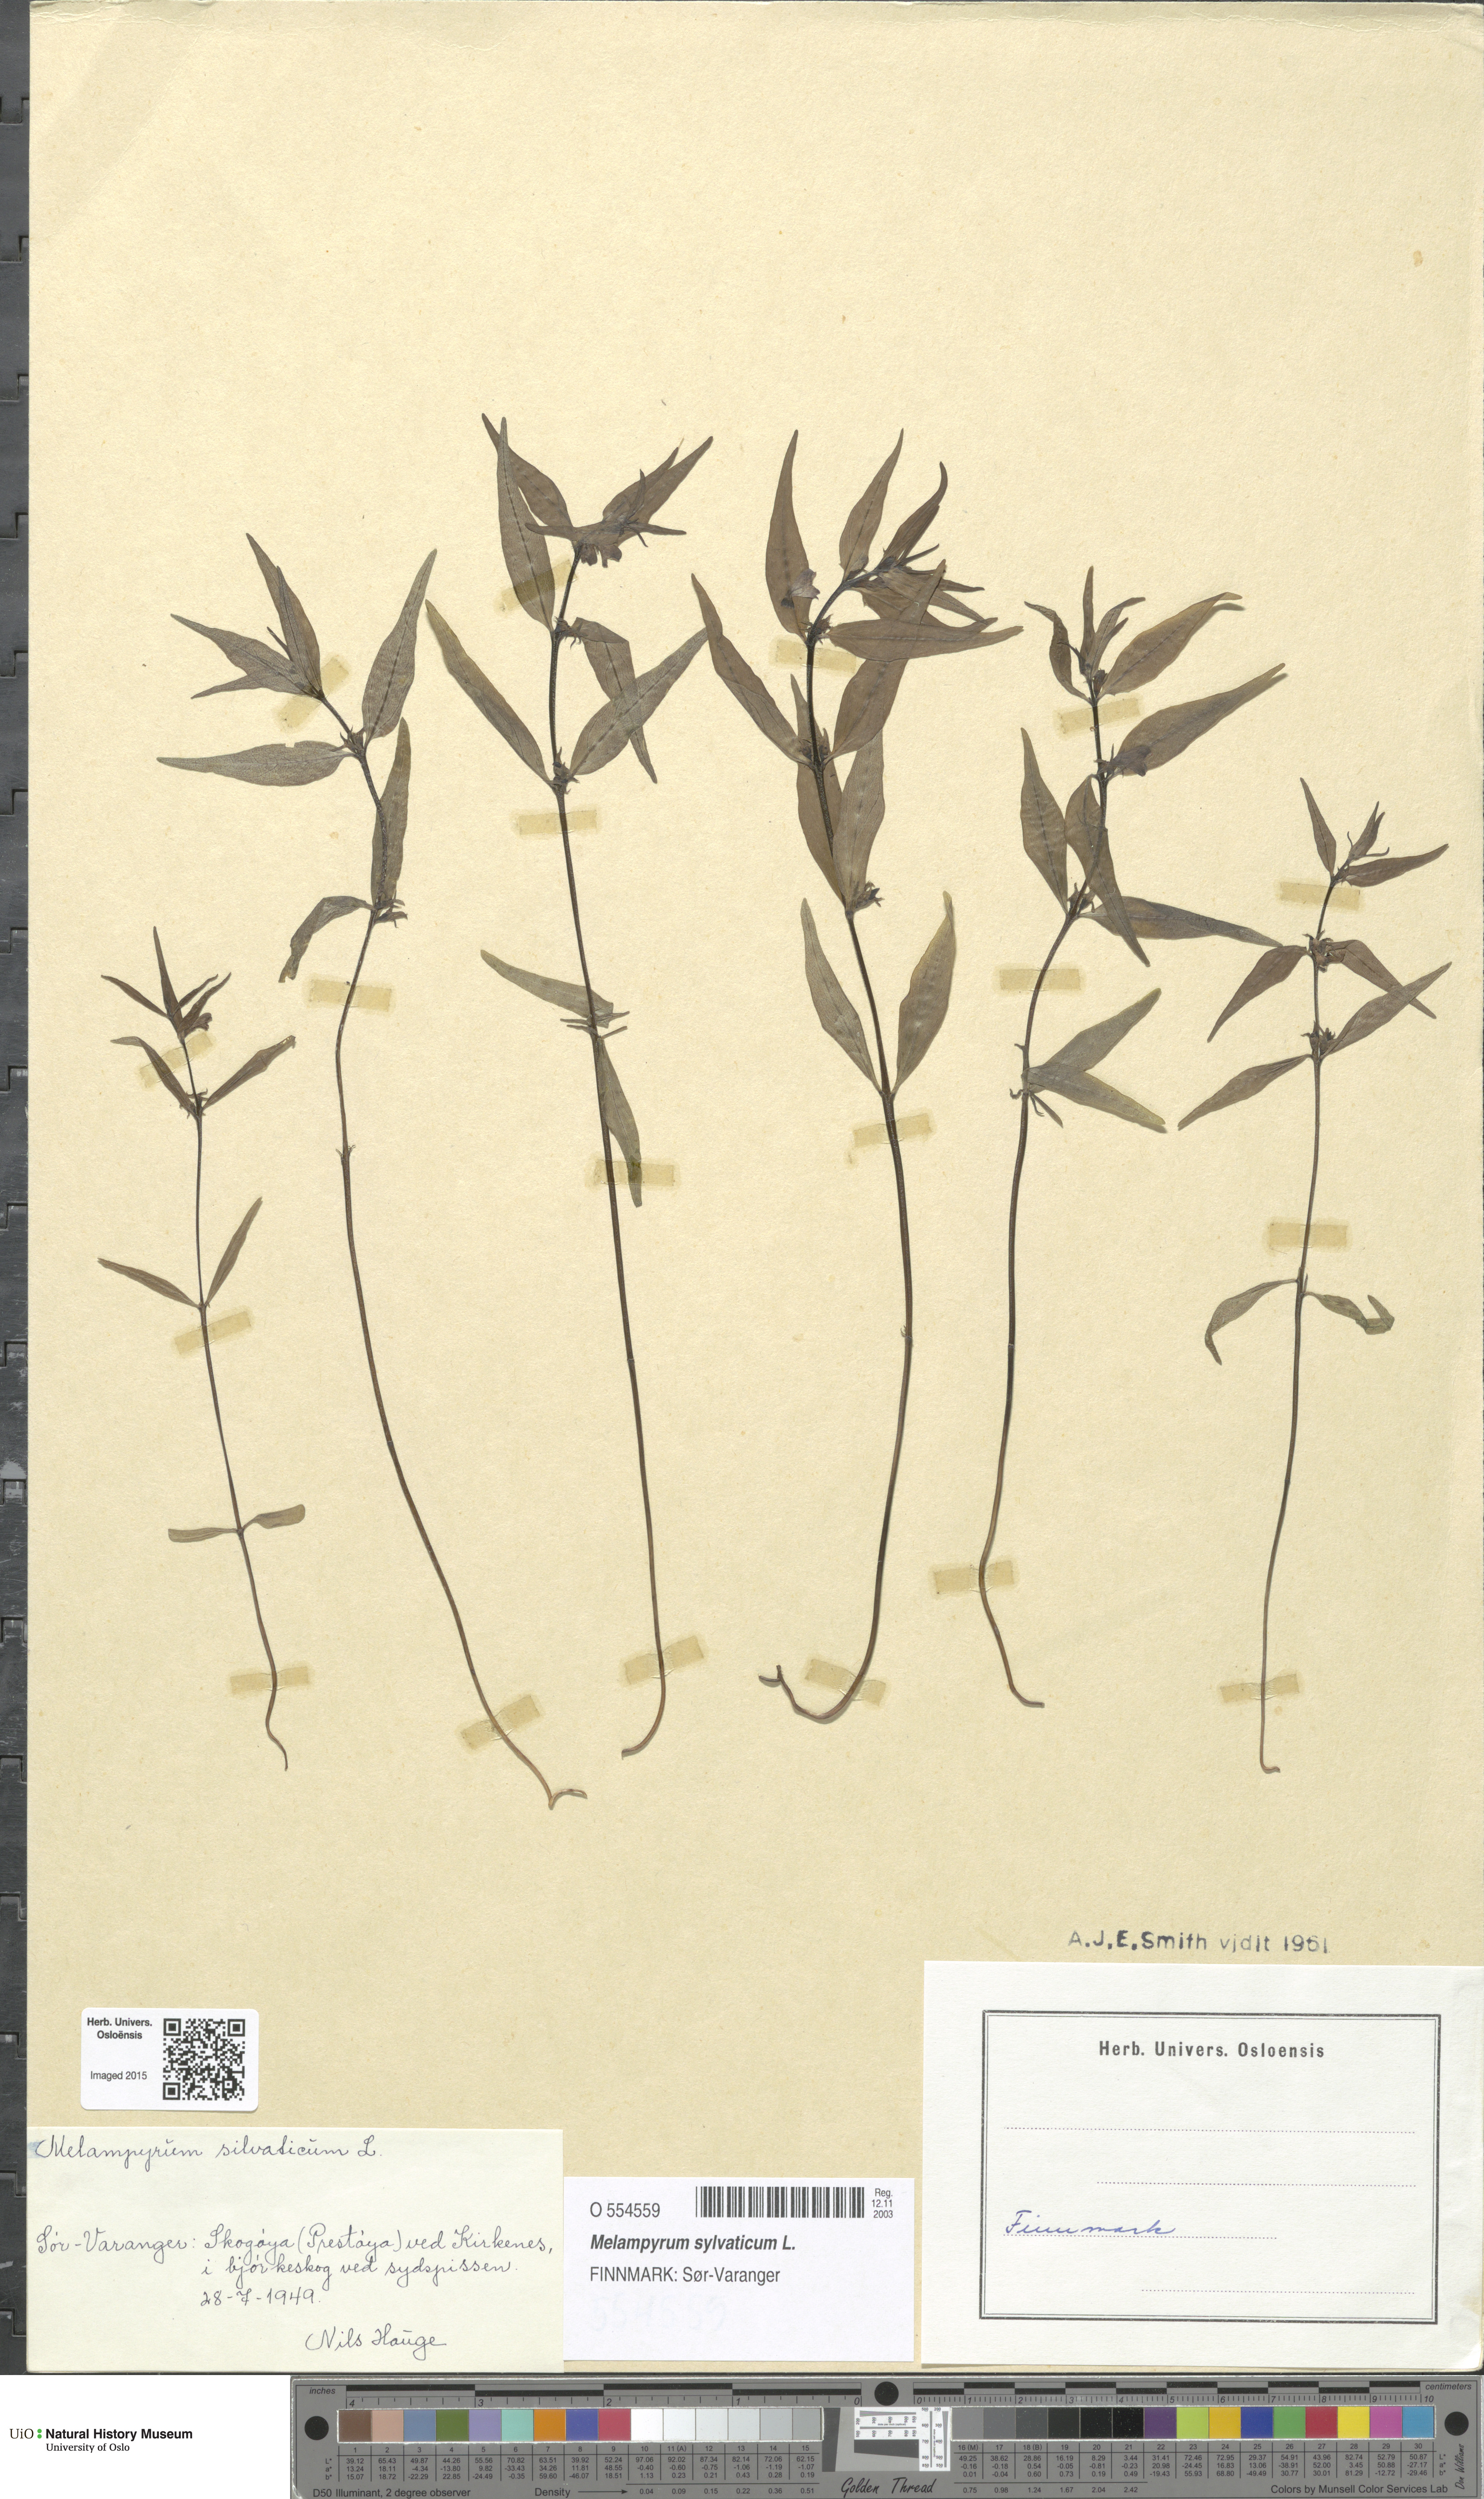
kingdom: Plantae
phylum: Tracheophyta
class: Magnoliopsida
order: Lamiales
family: Orobanchaceae
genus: Melampyrum
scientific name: Melampyrum sylvaticum
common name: Small cow-wheat
